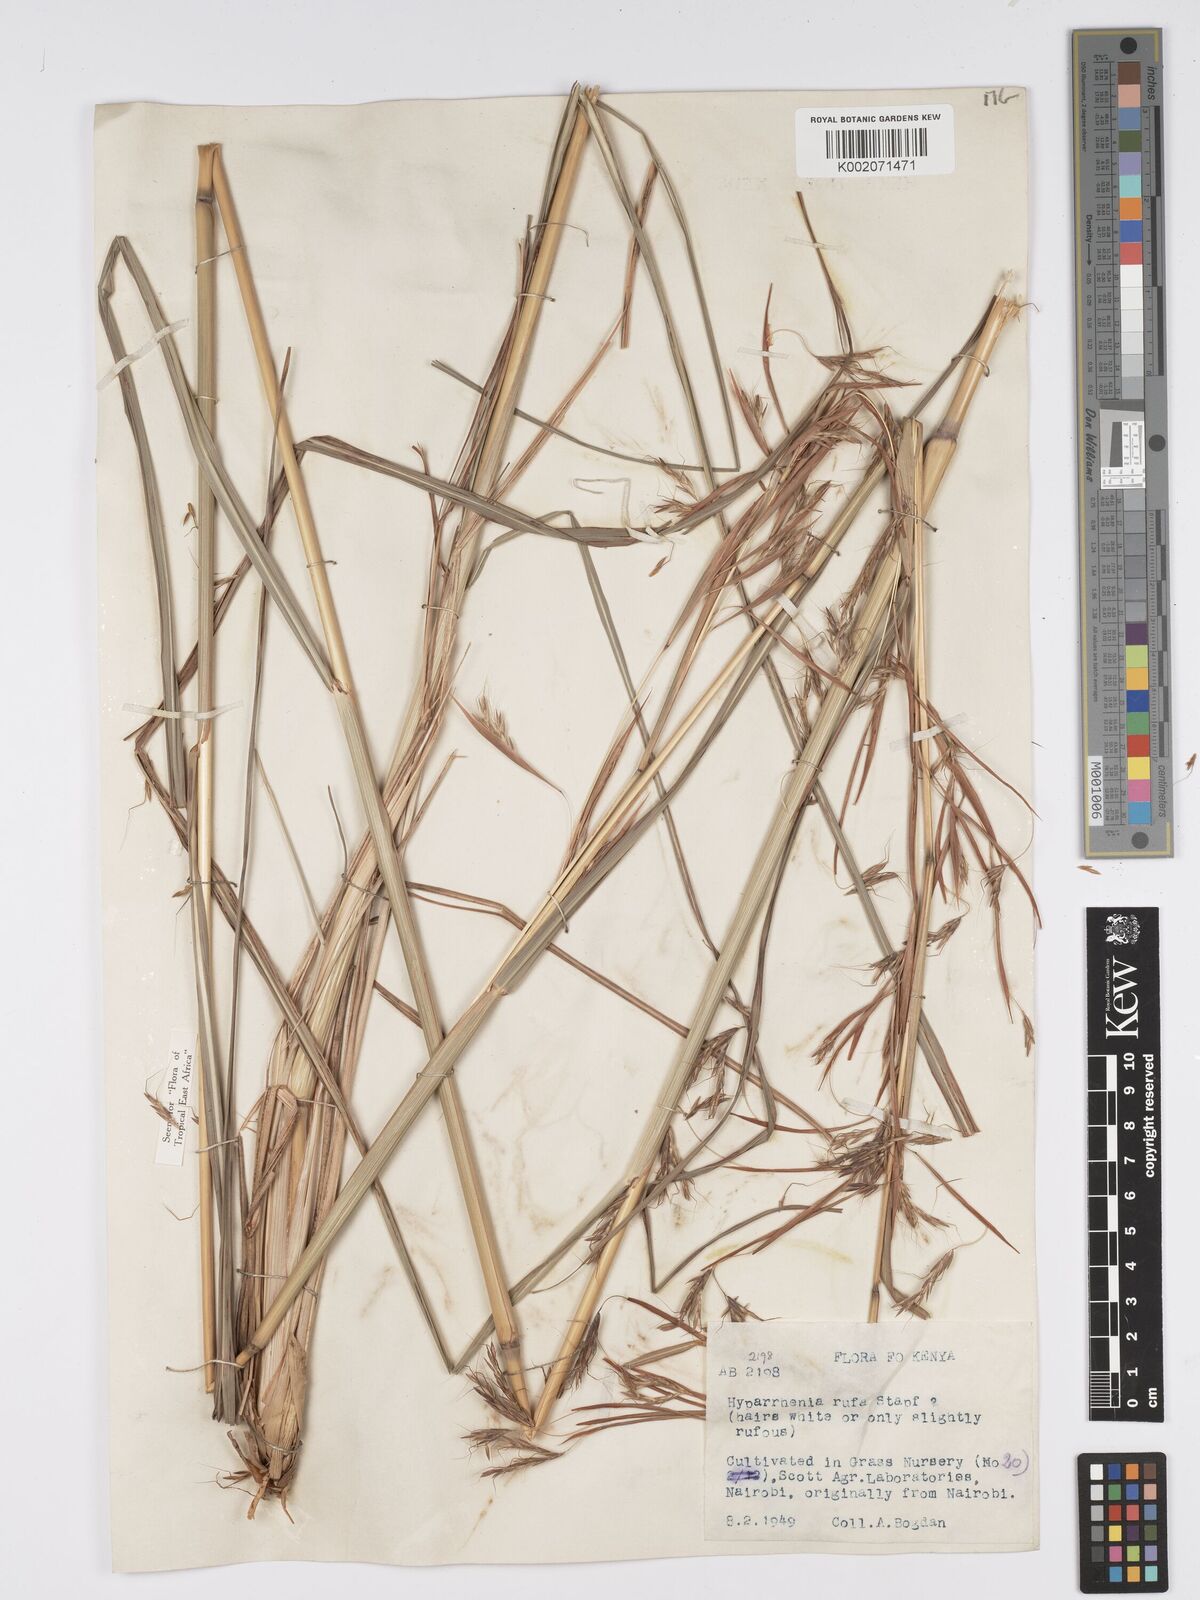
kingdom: Plantae
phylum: Tracheophyta
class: Liliopsida
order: Poales
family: Poaceae
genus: Hyparrhenia
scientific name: Hyparrhenia rufa
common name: Jaraguagrass
